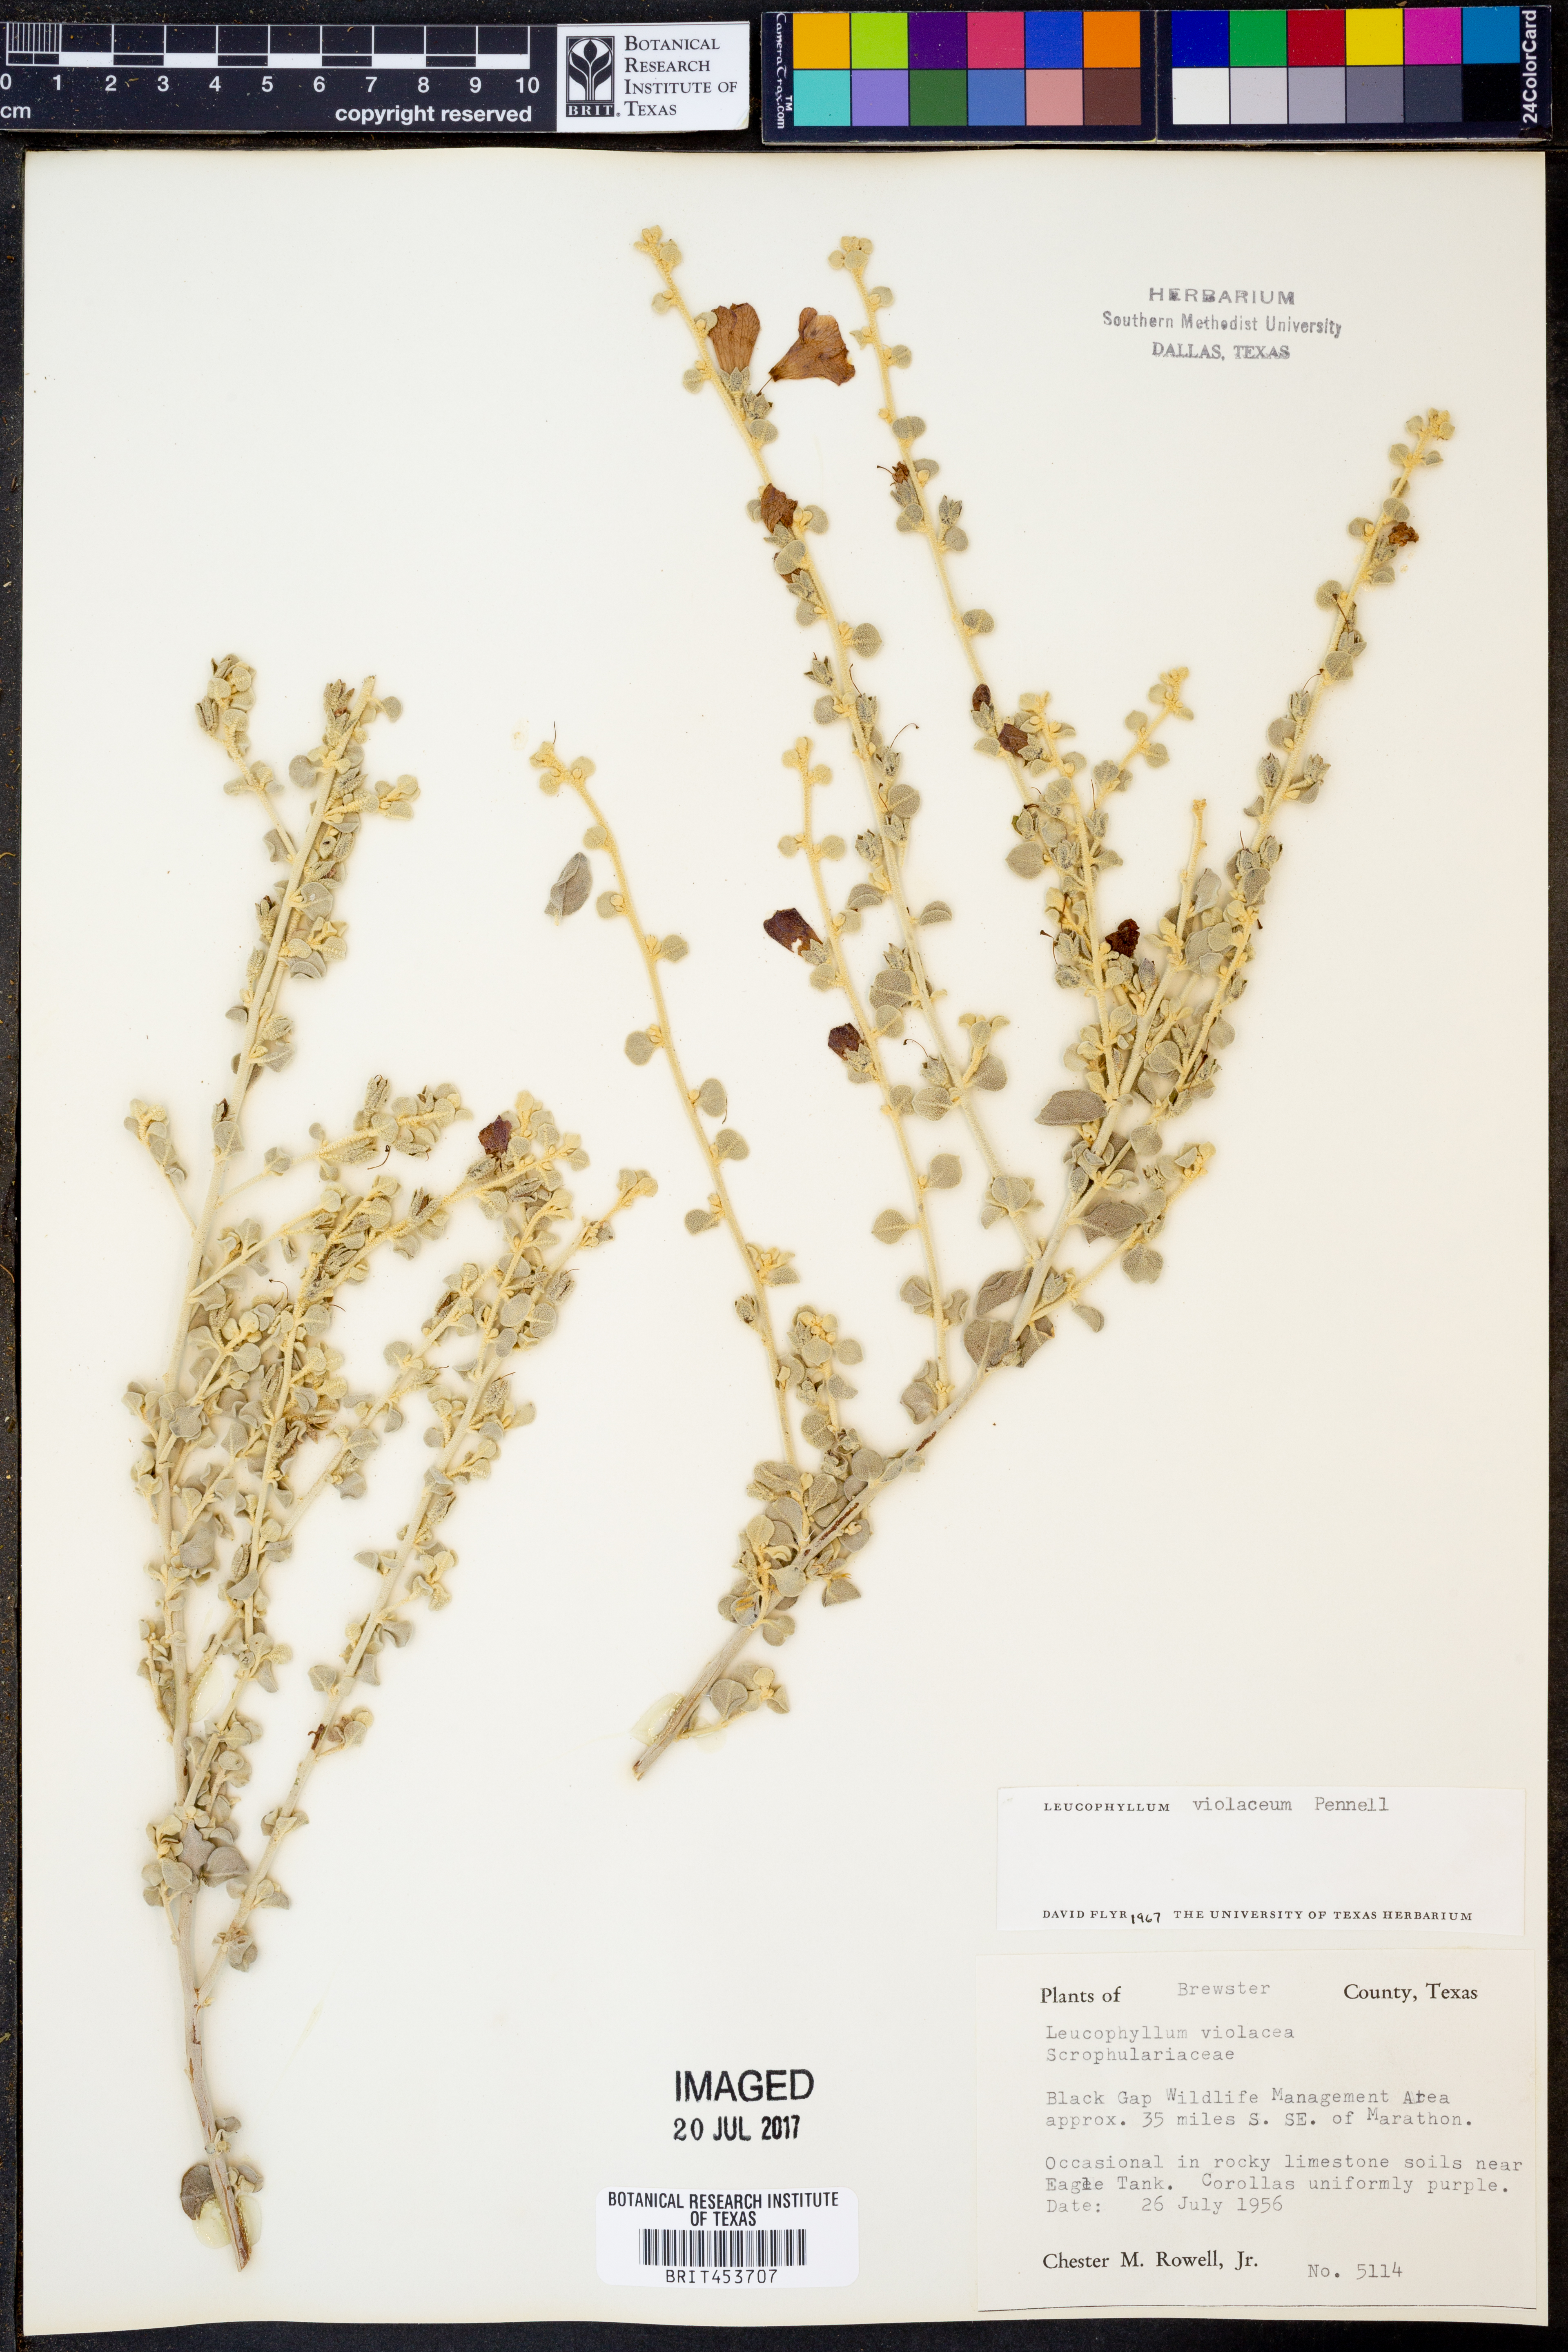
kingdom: Plantae
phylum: Tracheophyta
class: Magnoliopsida
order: Lamiales
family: Scrophulariaceae
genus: Leucophyllum
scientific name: Leucophyllum candidum
